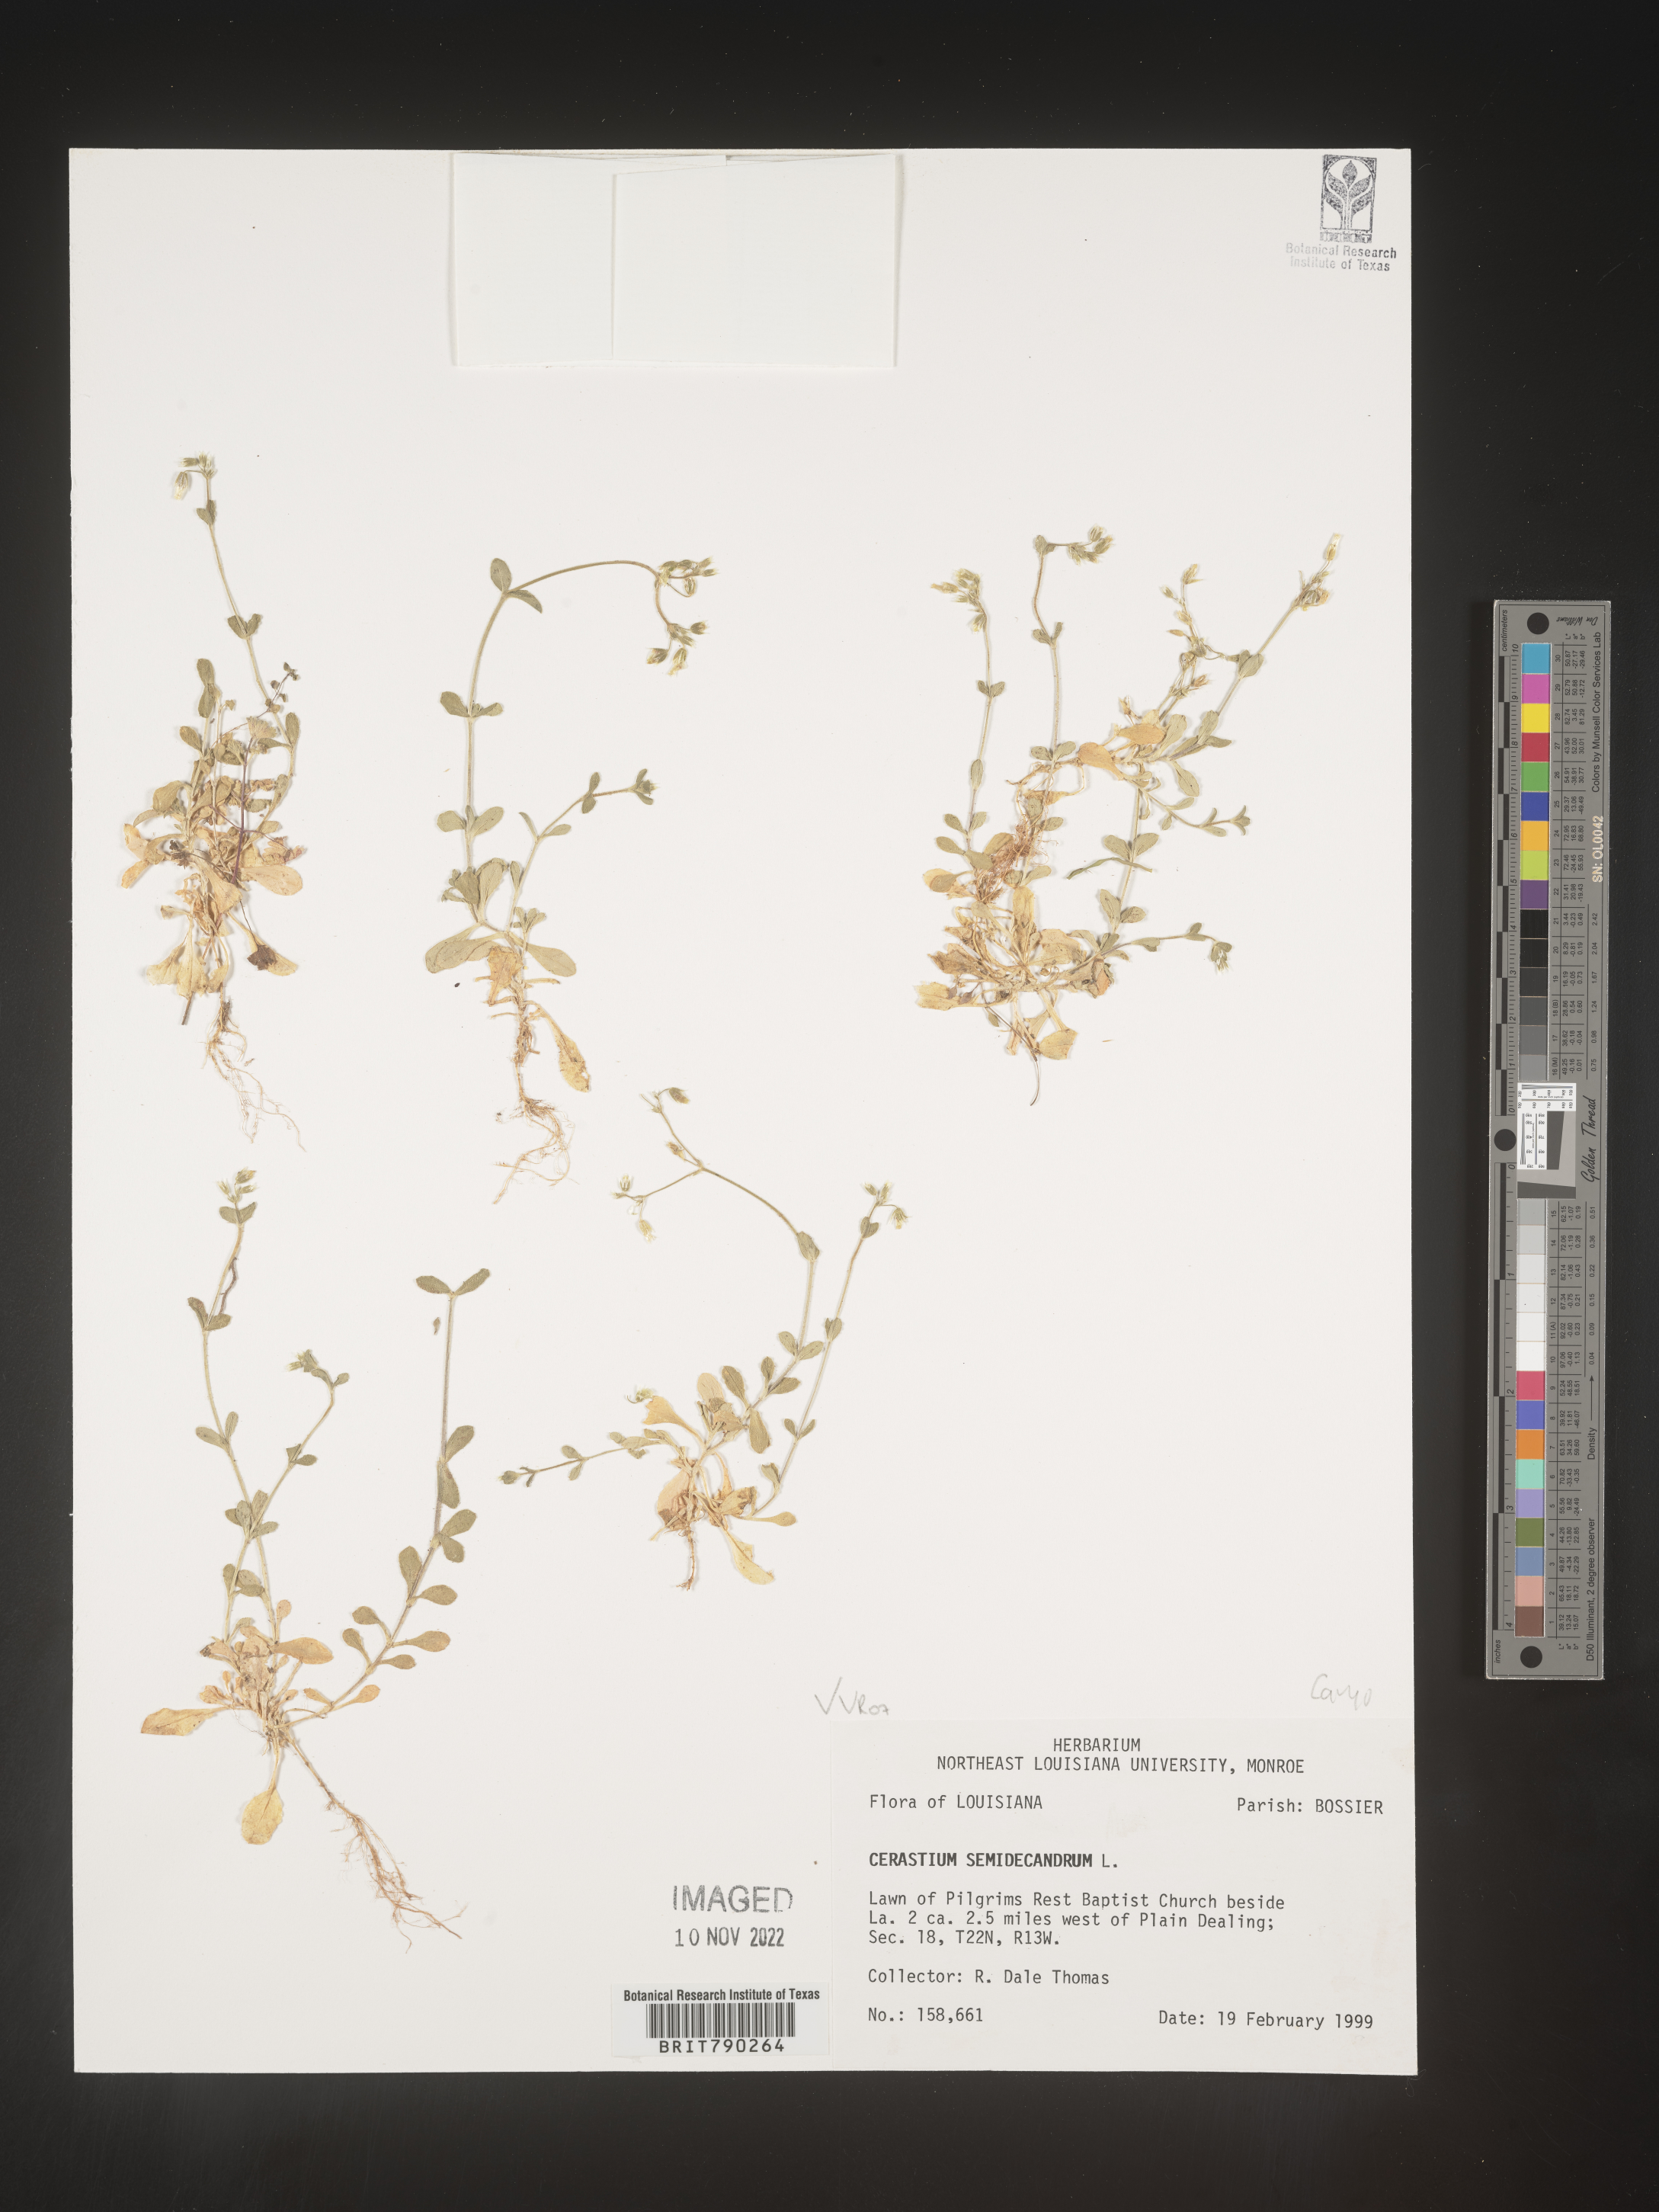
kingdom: Plantae
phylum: Tracheophyta
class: Magnoliopsida
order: Caryophyllales
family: Caryophyllaceae
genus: Cerastium
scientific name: Cerastium semidecandrum
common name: Little mouse-ear
